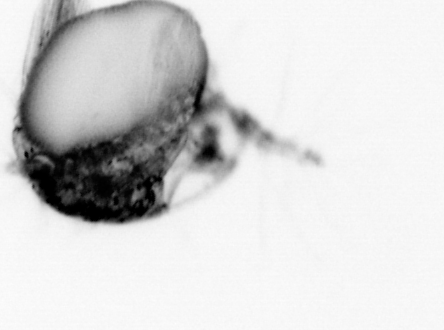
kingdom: Animalia
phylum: Arthropoda
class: Copepoda
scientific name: Copepoda
